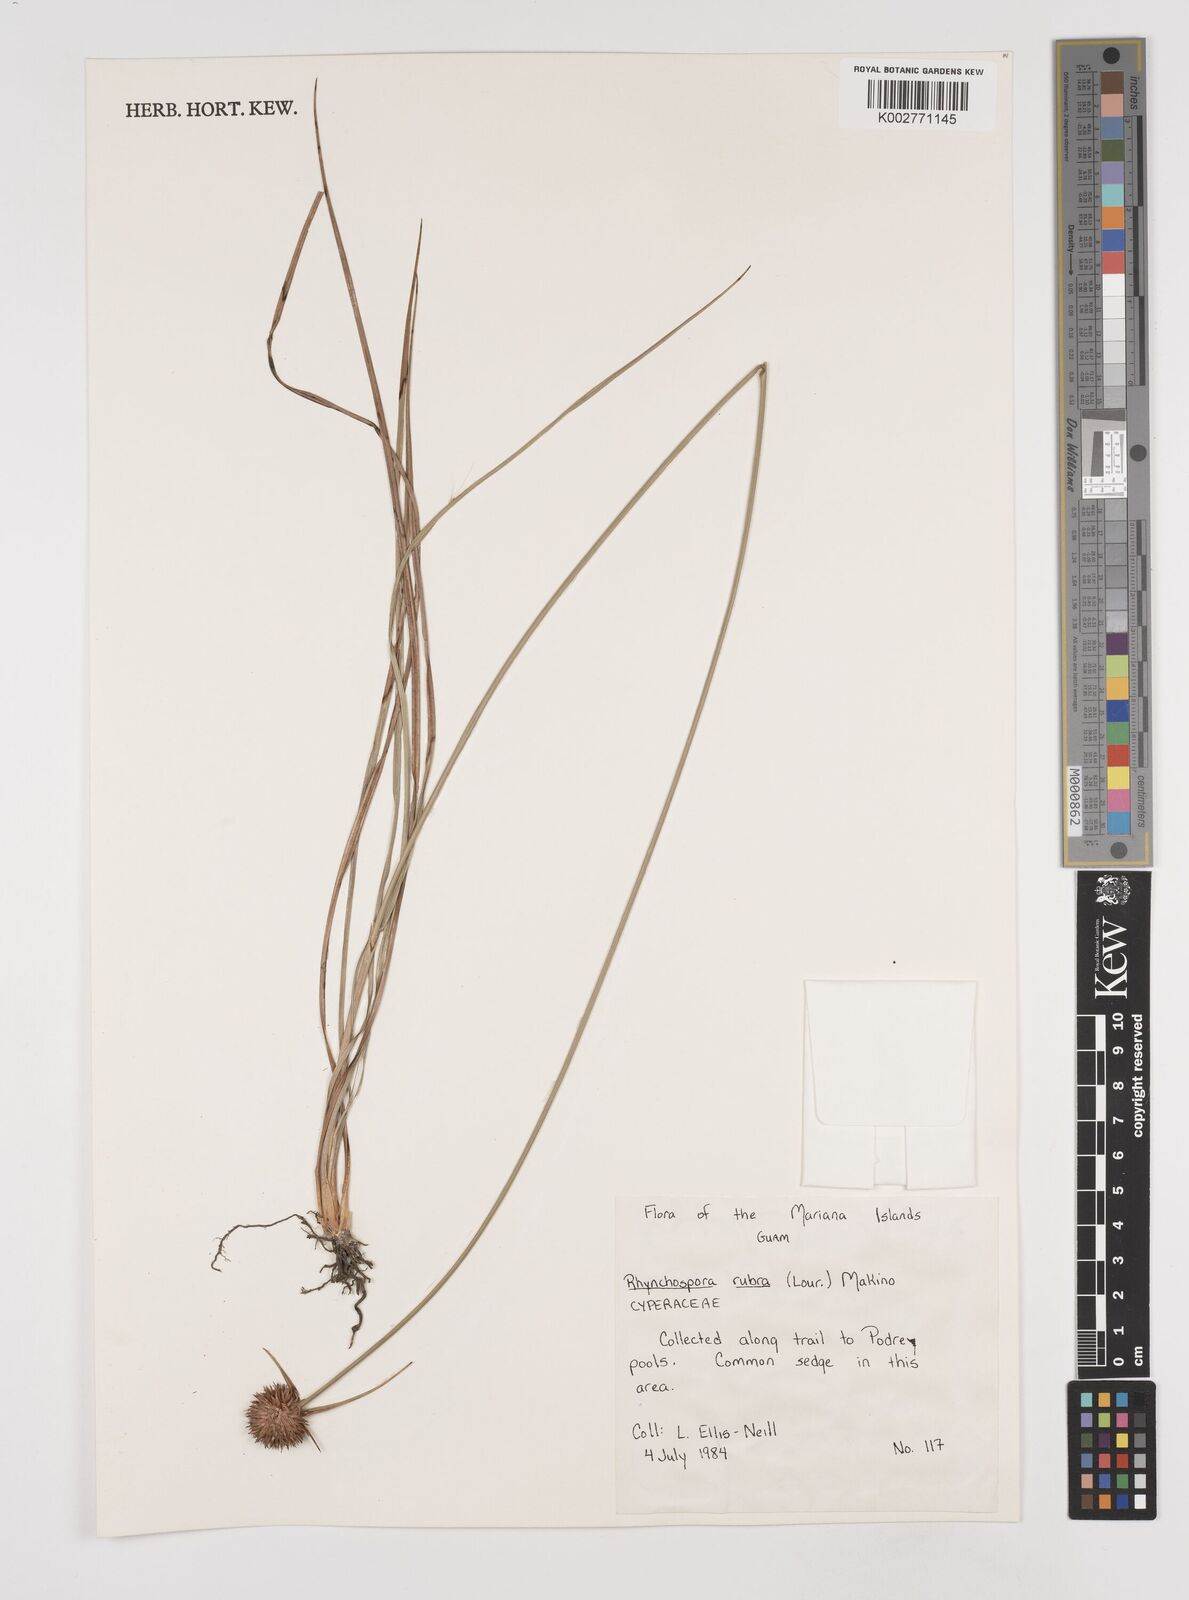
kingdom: Plantae
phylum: Tracheophyta
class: Liliopsida
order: Poales
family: Cyperaceae
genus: Rhynchospora
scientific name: Rhynchospora rubra
